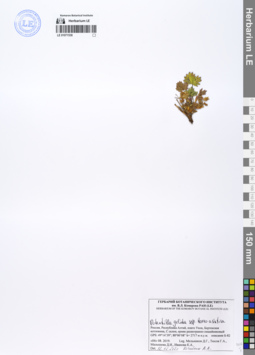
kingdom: Plantae
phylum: Tracheophyta
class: Magnoliopsida
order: Rosales
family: Rosaceae
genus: Potentilla
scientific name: Potentilla crantzii
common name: Alpine cinquefoil
